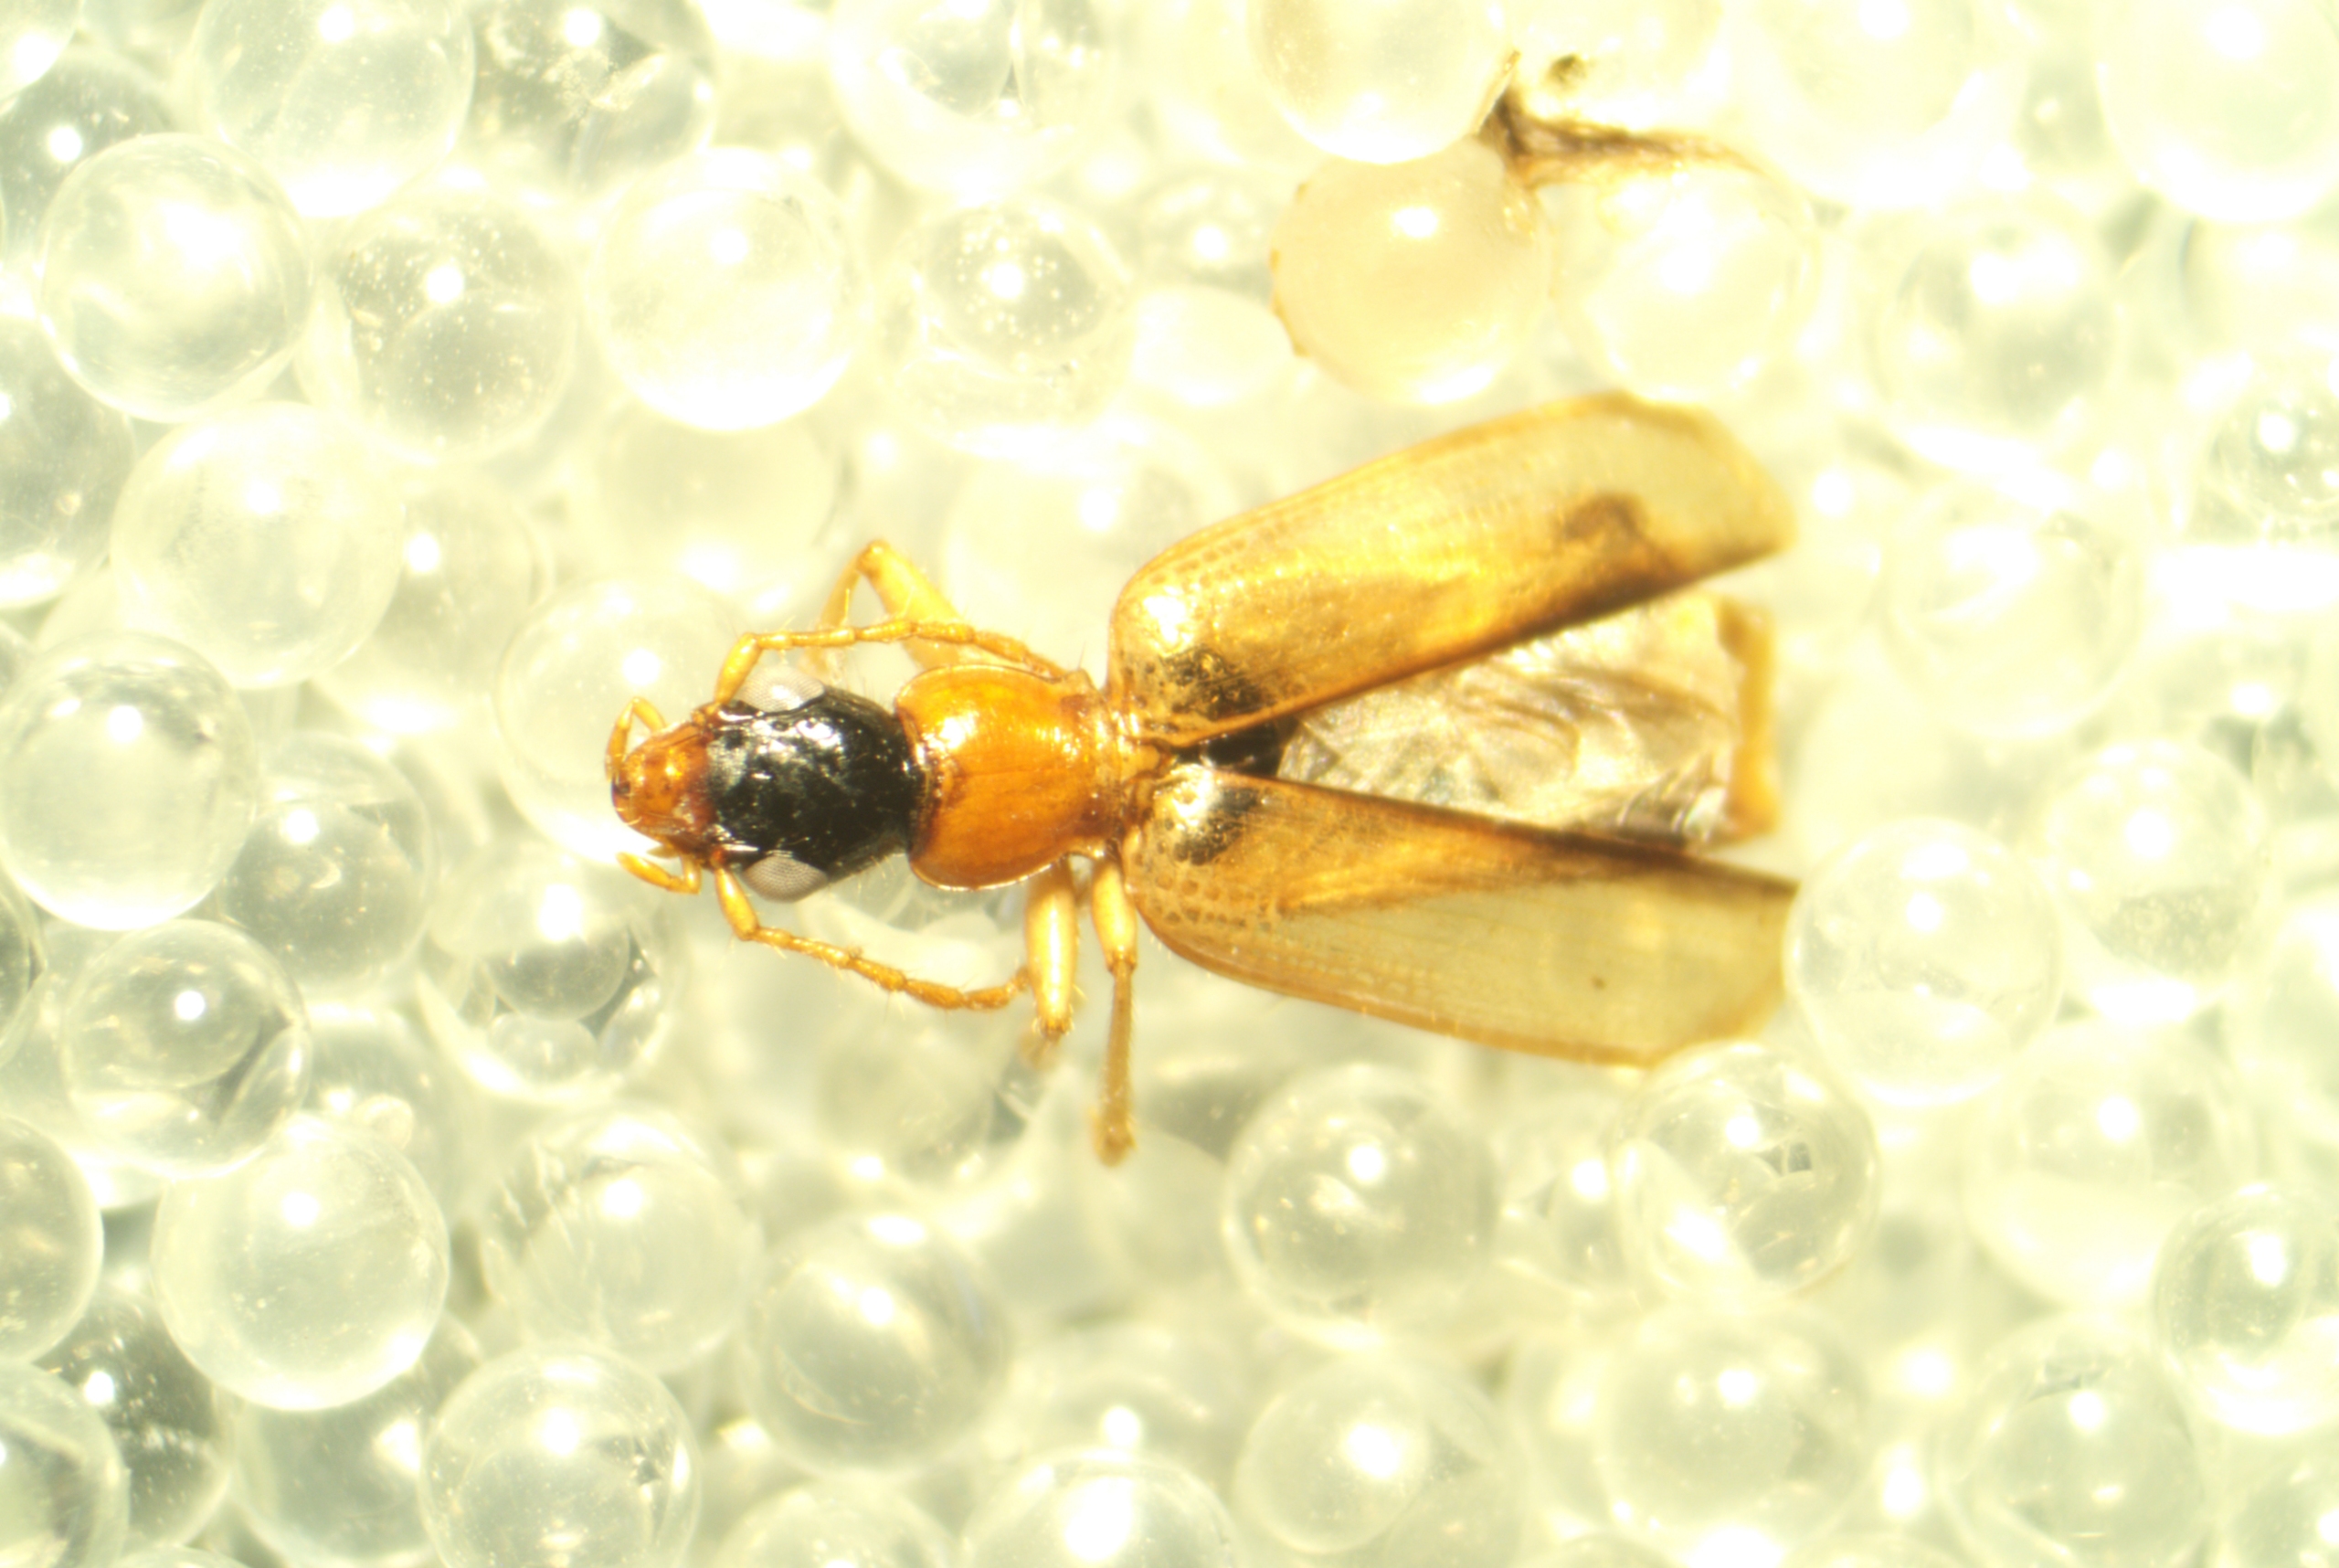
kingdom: Animalia
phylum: Arthropoda
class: Insecta
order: Coleoptera
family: Carabidae
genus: Demetrias
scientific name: Demetrias atricapillus
